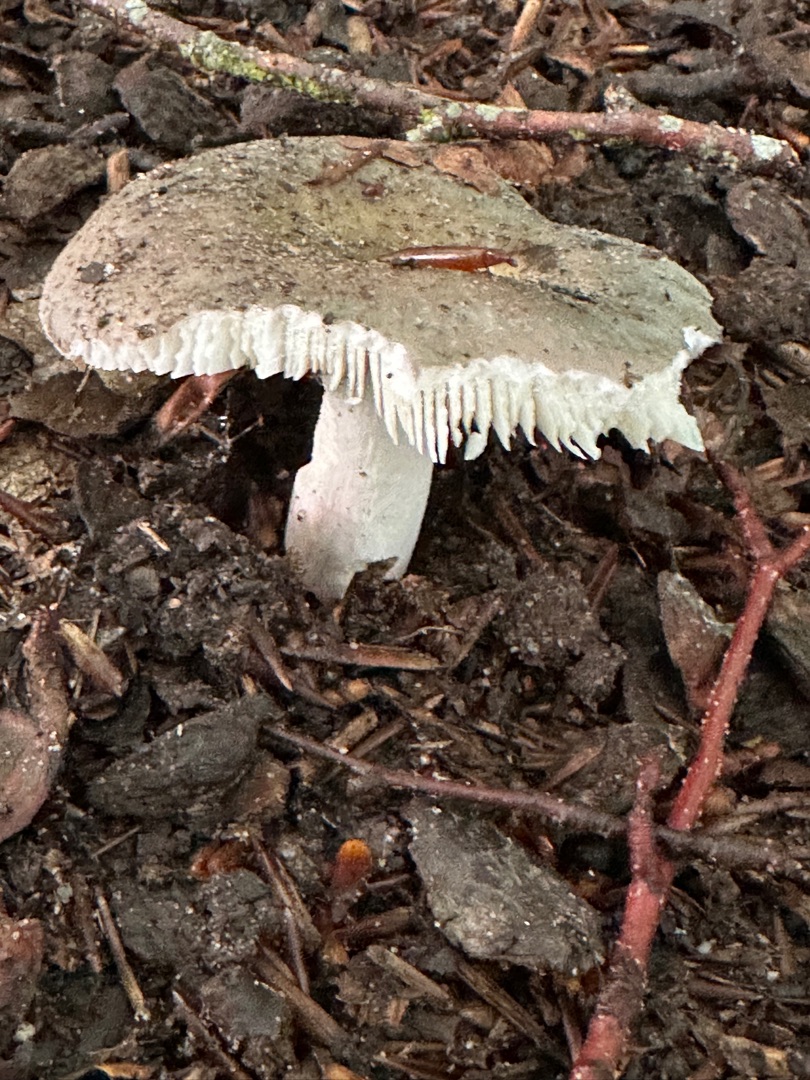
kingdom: Plantae
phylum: Tracheophyta
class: Magnoliopsida
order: Nymphaeales
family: Nymphaeaceae
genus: Nuphar
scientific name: Nuphar lutea
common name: Gul åkande
